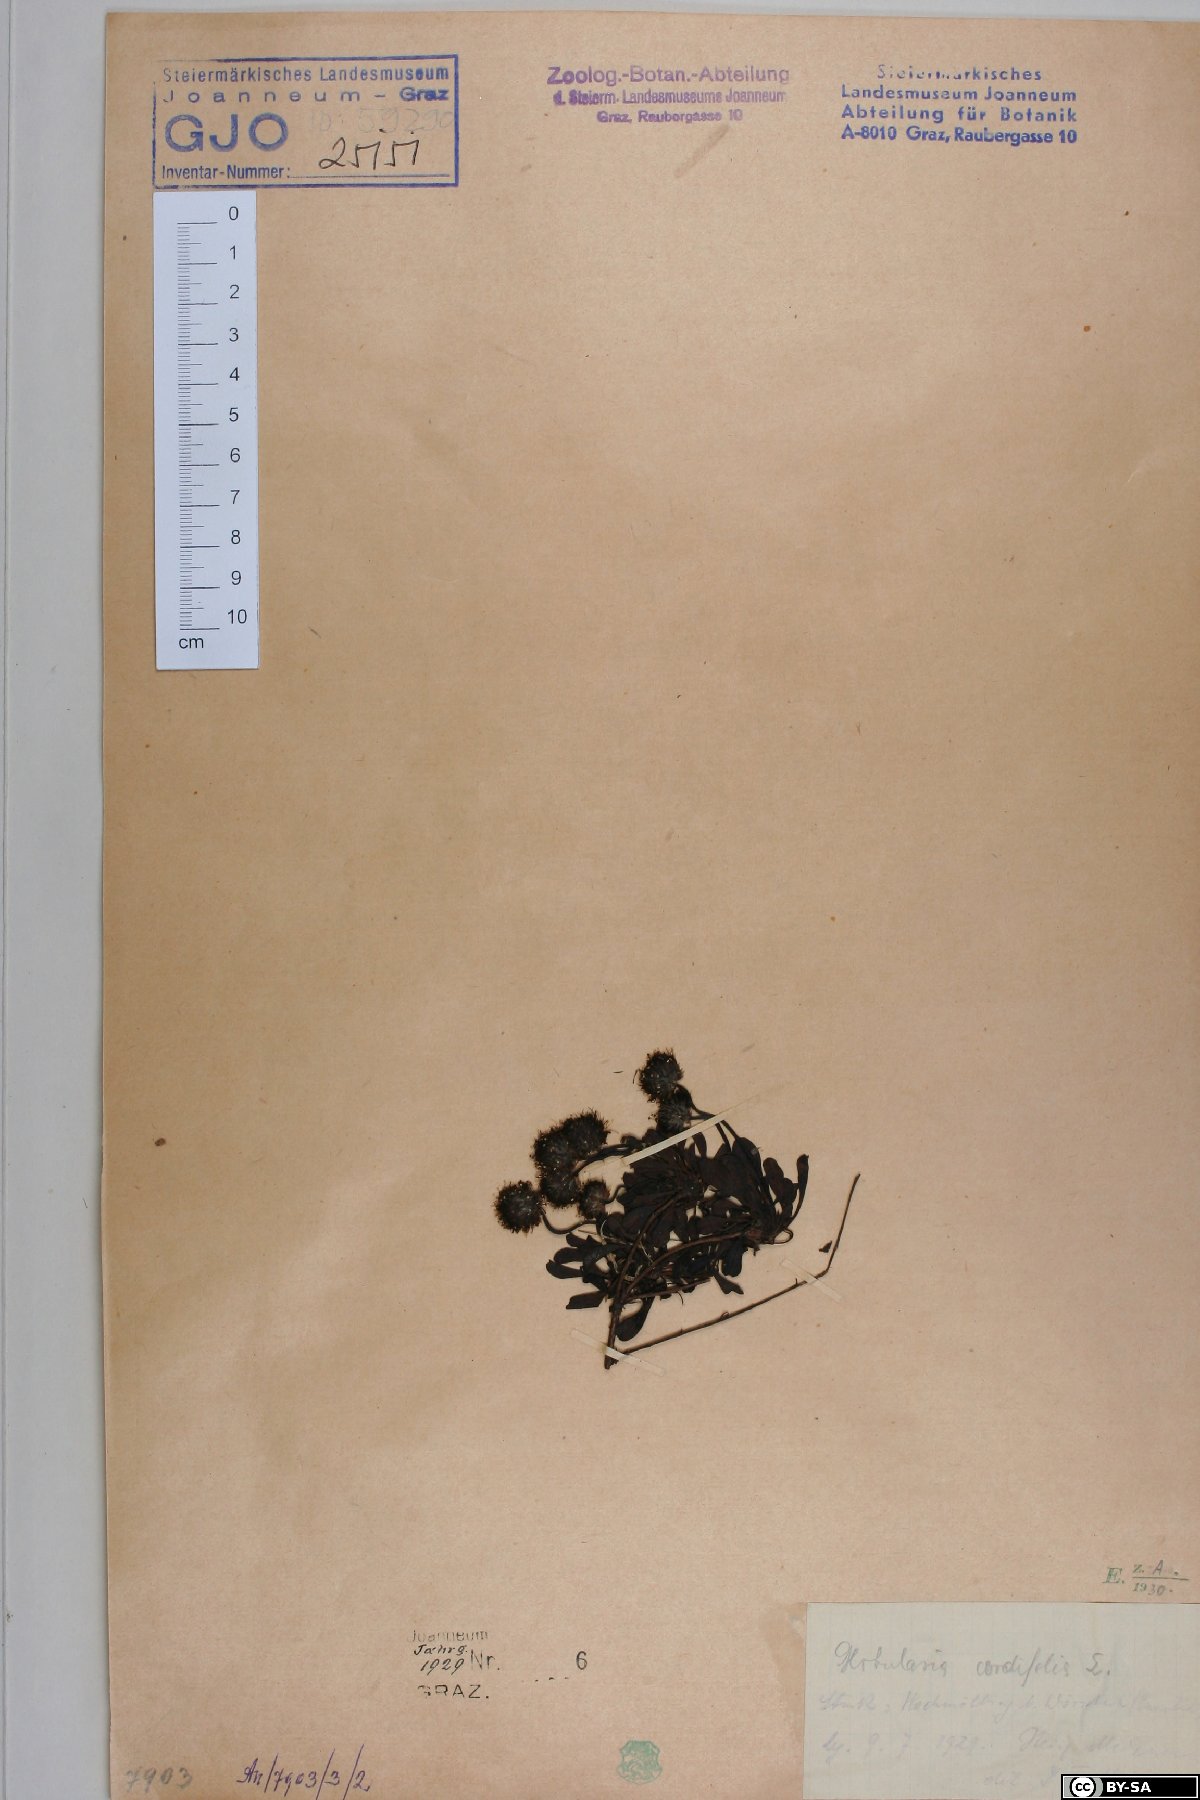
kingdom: Plantae
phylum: Tracheophyta
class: Magnoliopsida
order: Lamiales
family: Plantaginaceae
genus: Globularia
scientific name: Globularia cordifolia
